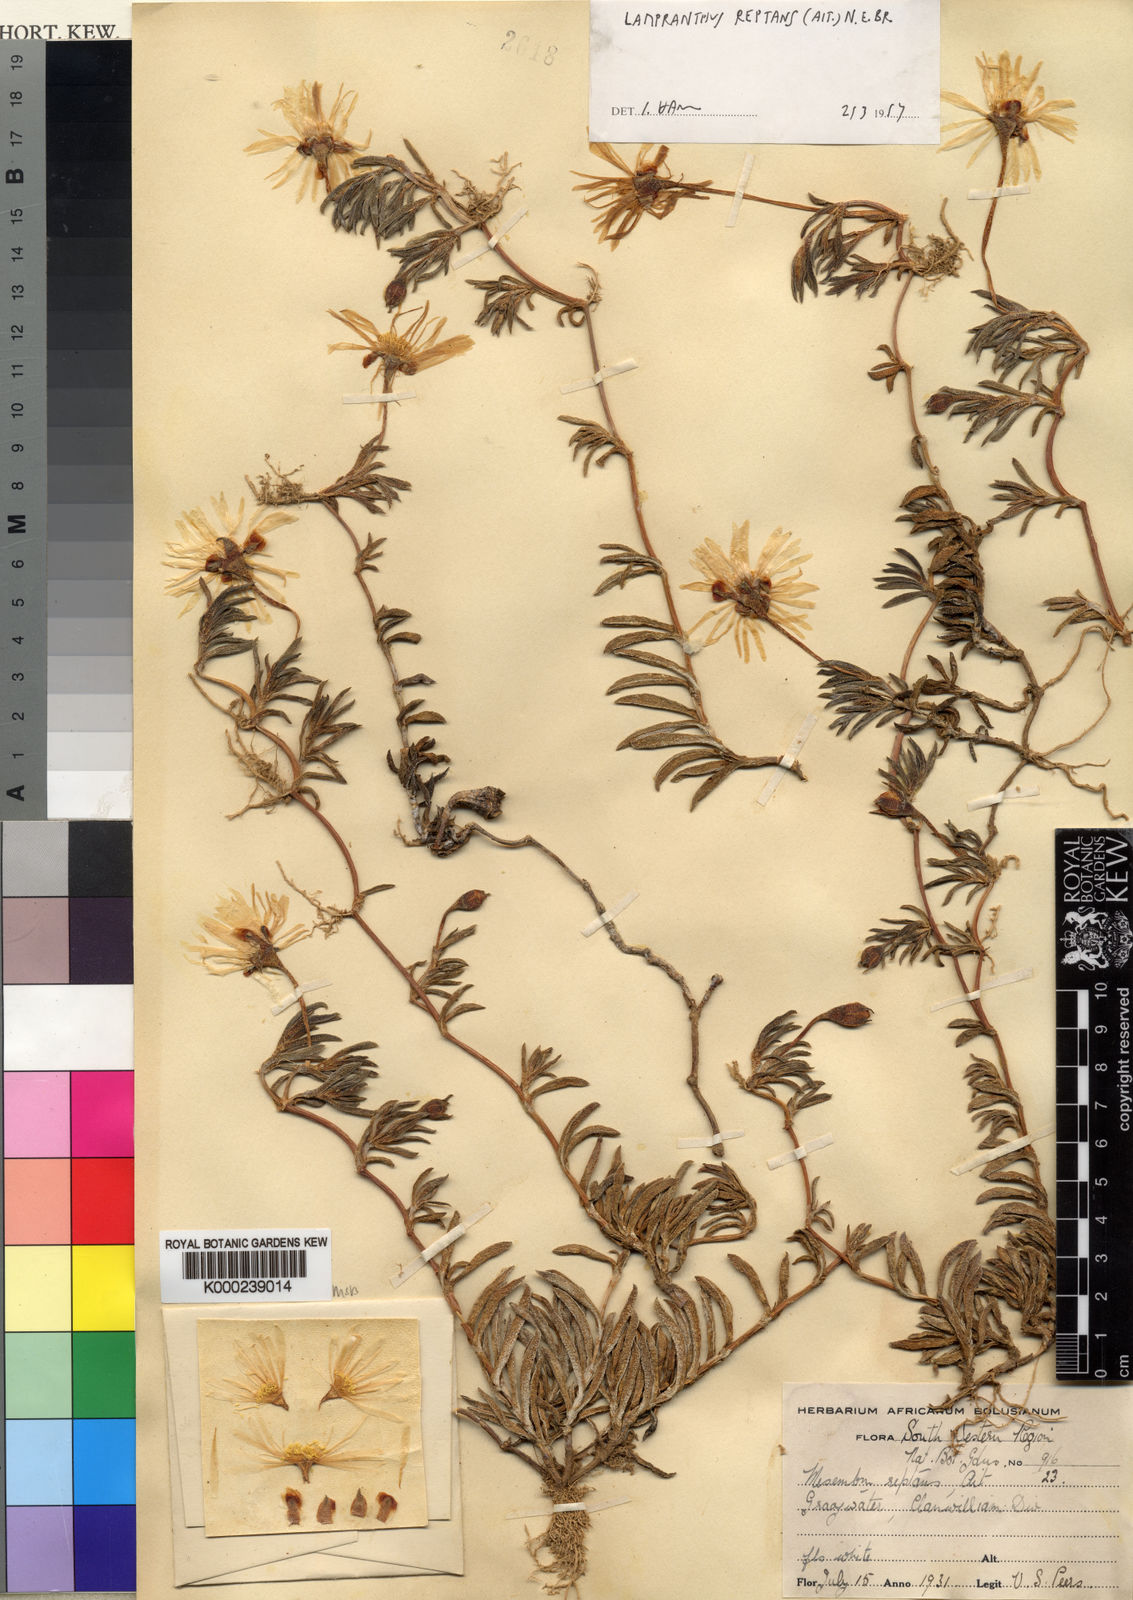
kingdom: Plantae
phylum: Tracheophyta
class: Magnoliopsida
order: Caryophyllales
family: Aizoaceae
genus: Lampranthus
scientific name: Lampranthus reptans
